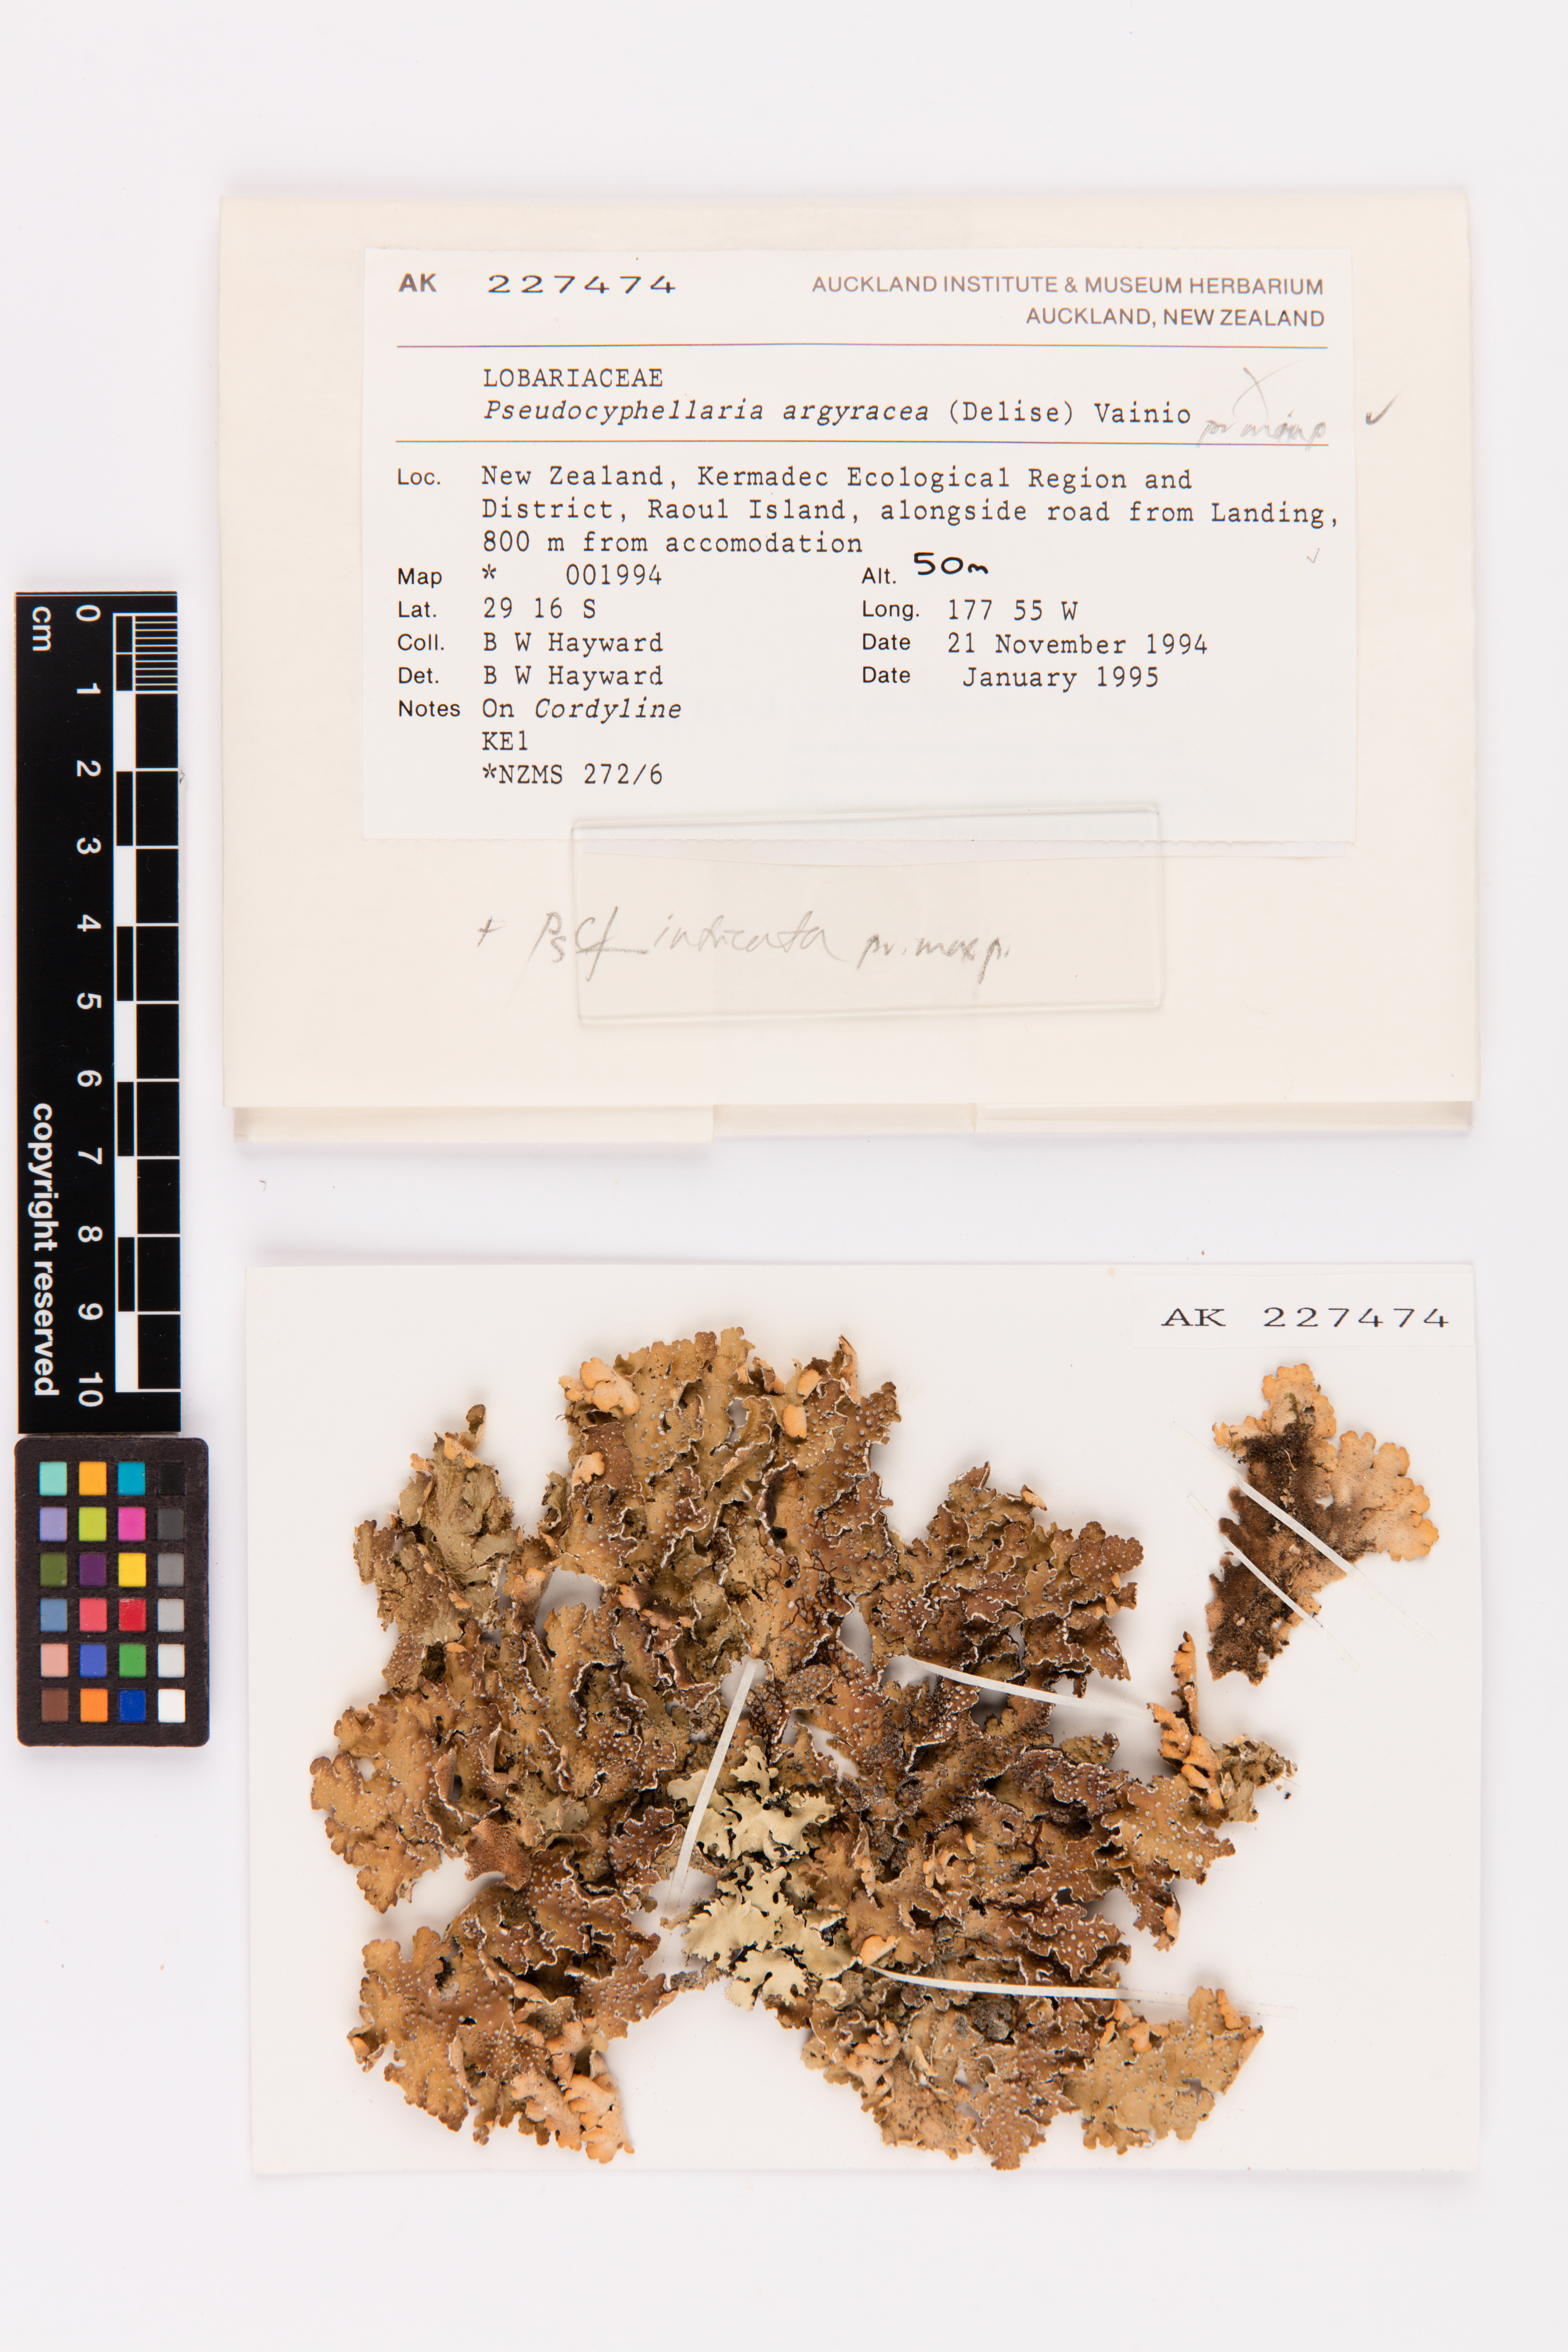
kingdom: Fungi
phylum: Ascomycota
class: Lecanoromycetes
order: Peltigerales
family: Lobariaceae
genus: Pseudocyphellaria
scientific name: Pseudocyphellaria argyracea
